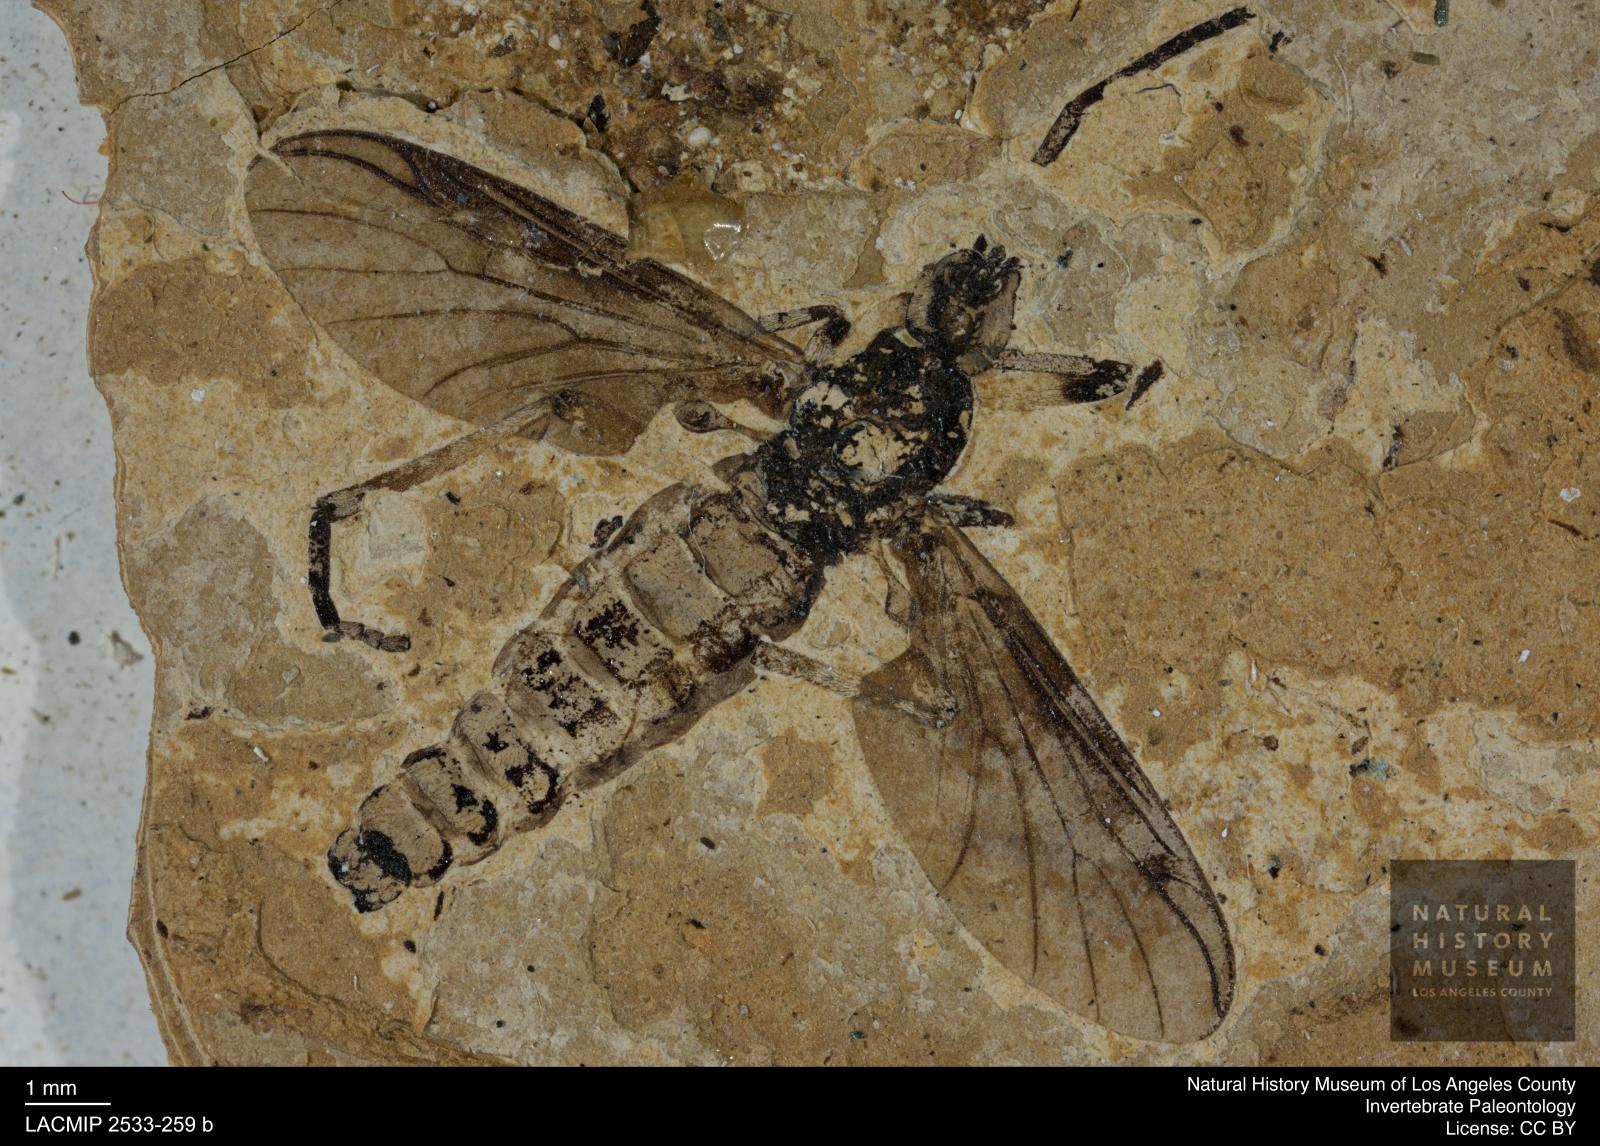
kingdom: Animalia
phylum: Arthropoda
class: Insecta
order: Diptera
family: Bibionidae
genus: Plecia
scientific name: Plecia
